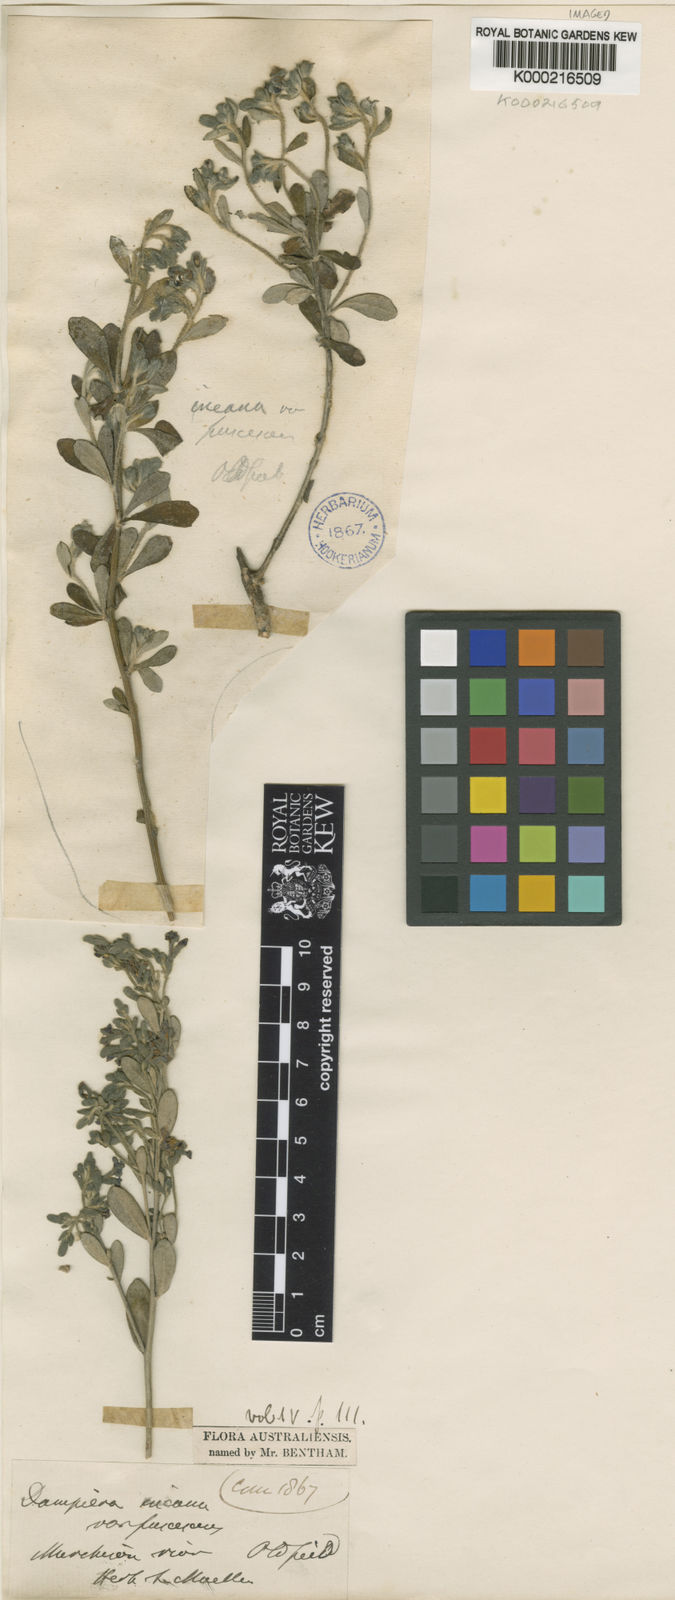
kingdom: Plantae
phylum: Tracheophyta
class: Magnoliopsida
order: Asterales
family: Goodeniaceae
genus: Dampiera
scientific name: Dampiera incana
